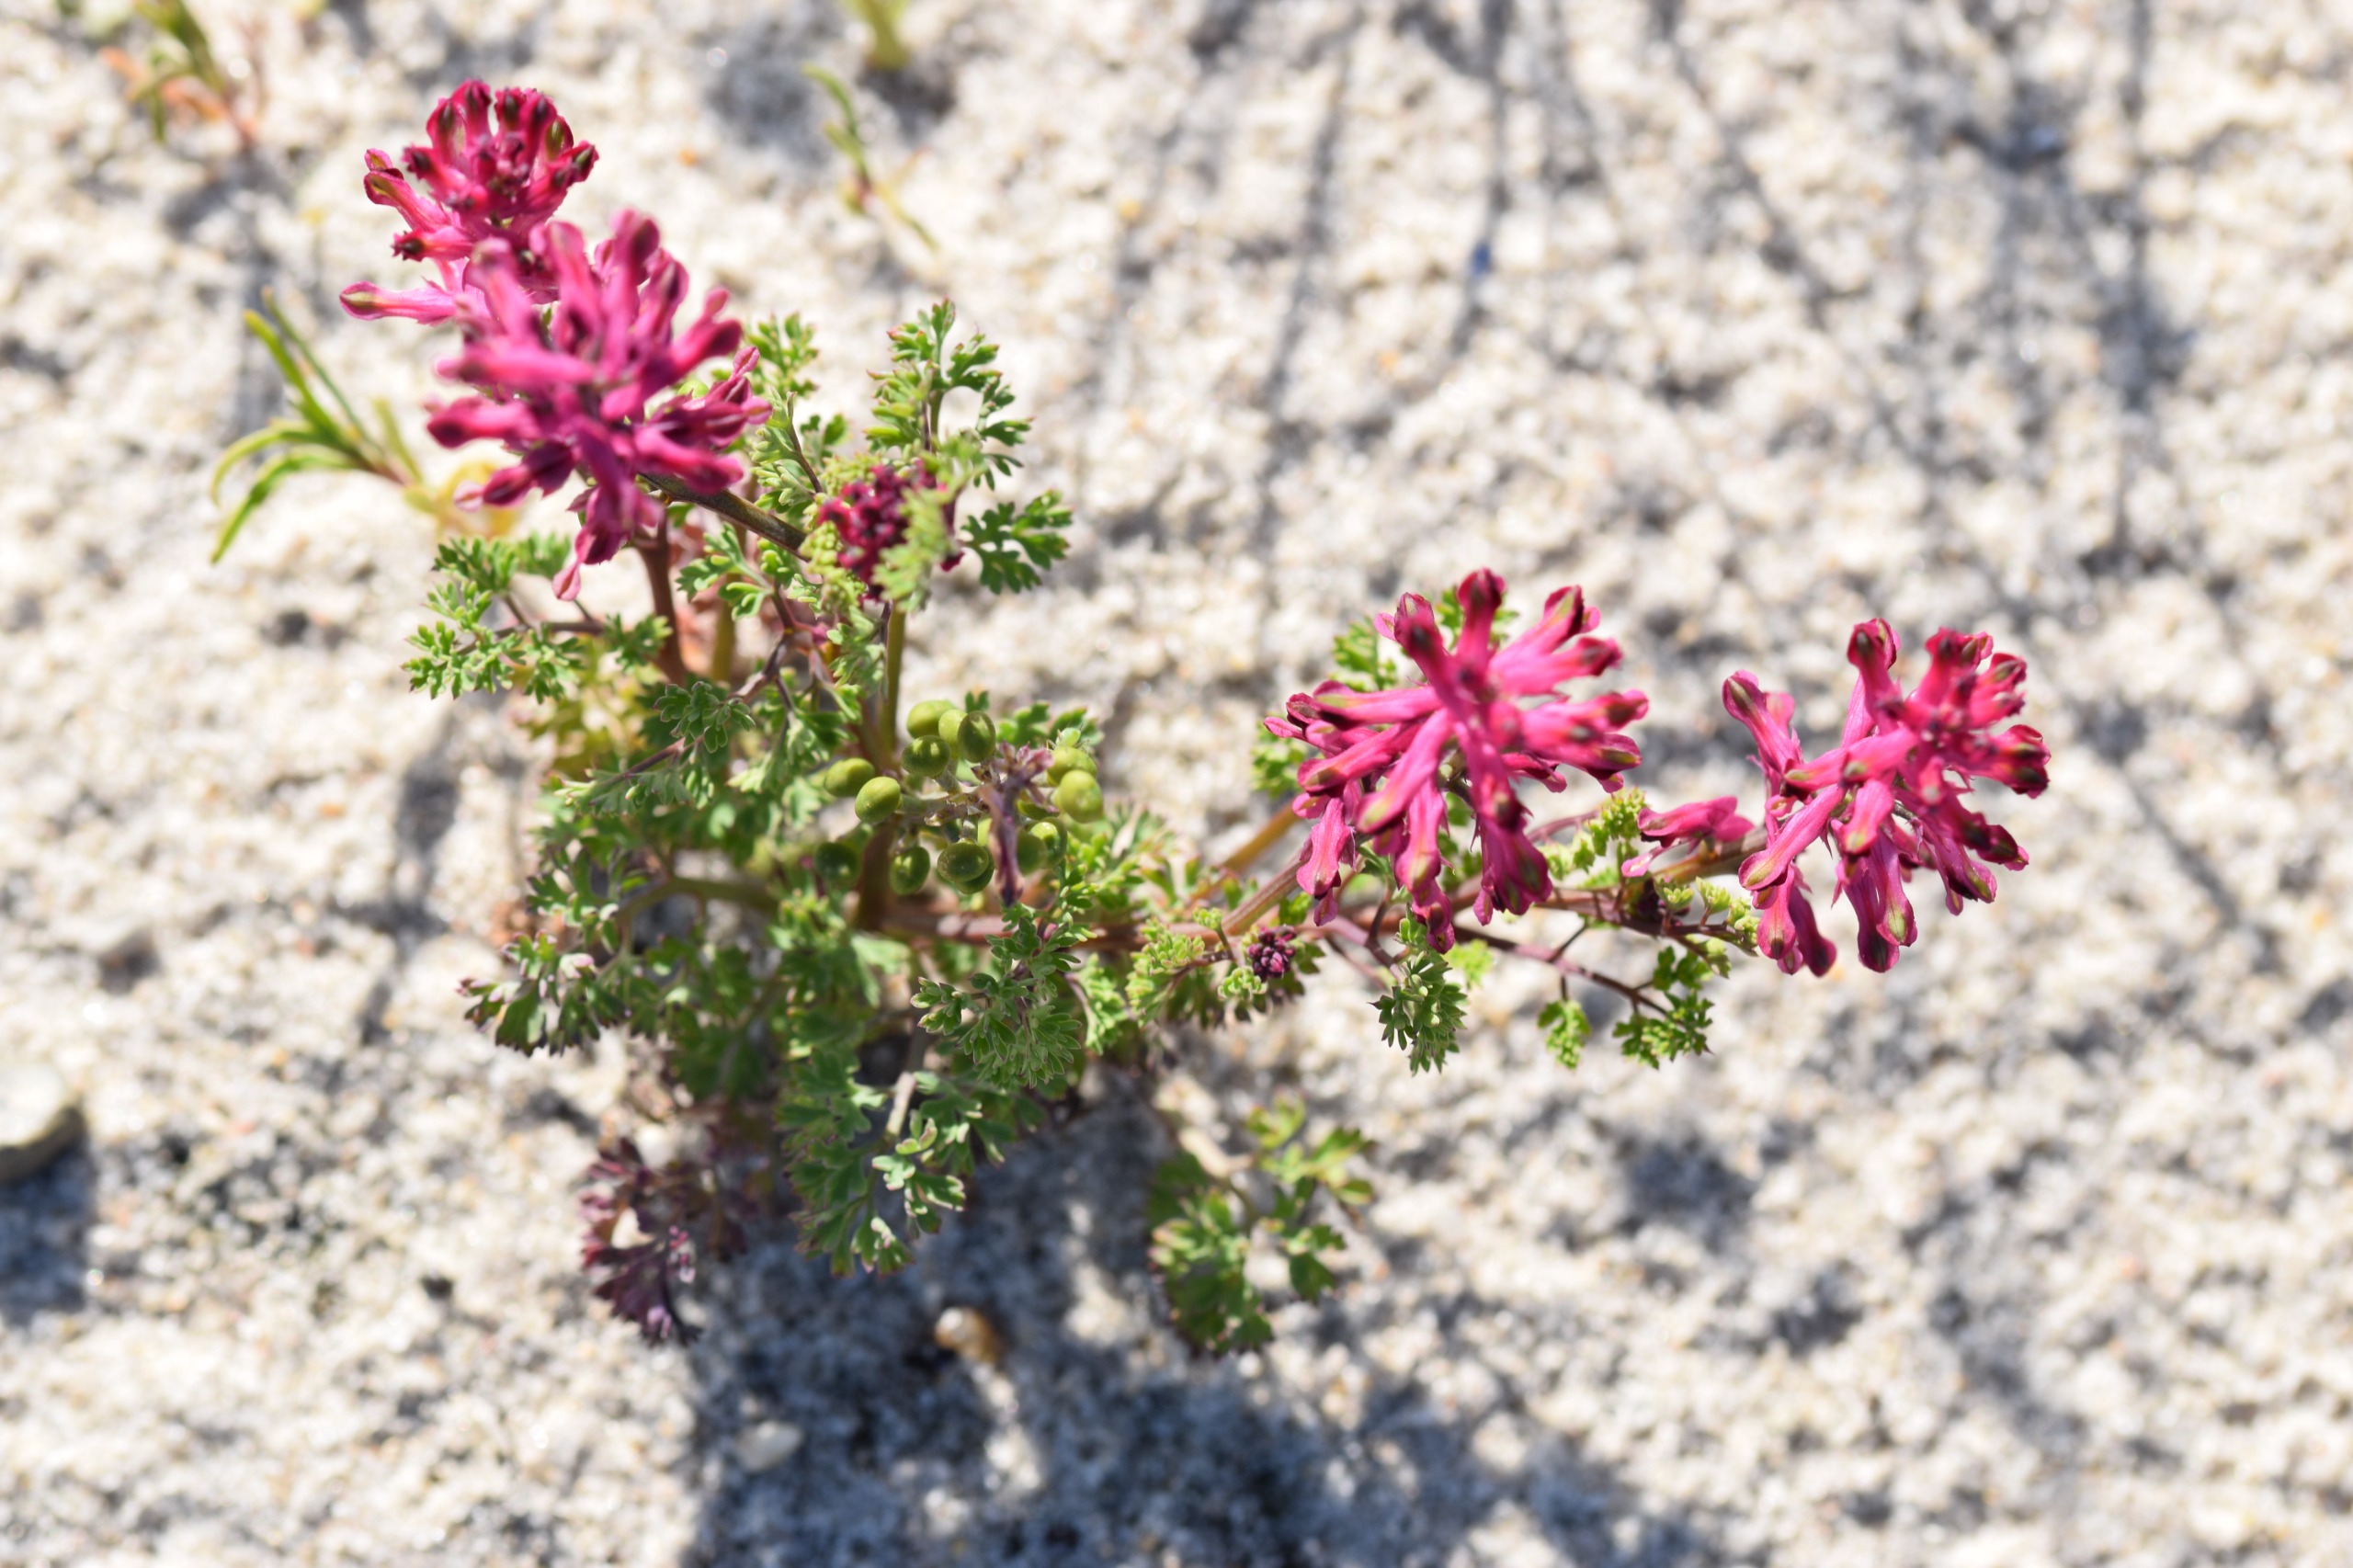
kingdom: Plantae
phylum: Tracheophyta
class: Magnoliopsida
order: Ranunculales
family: Papaveraceae
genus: Fumaria
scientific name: Fumaria officinalis
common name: Læge-jordrøg
